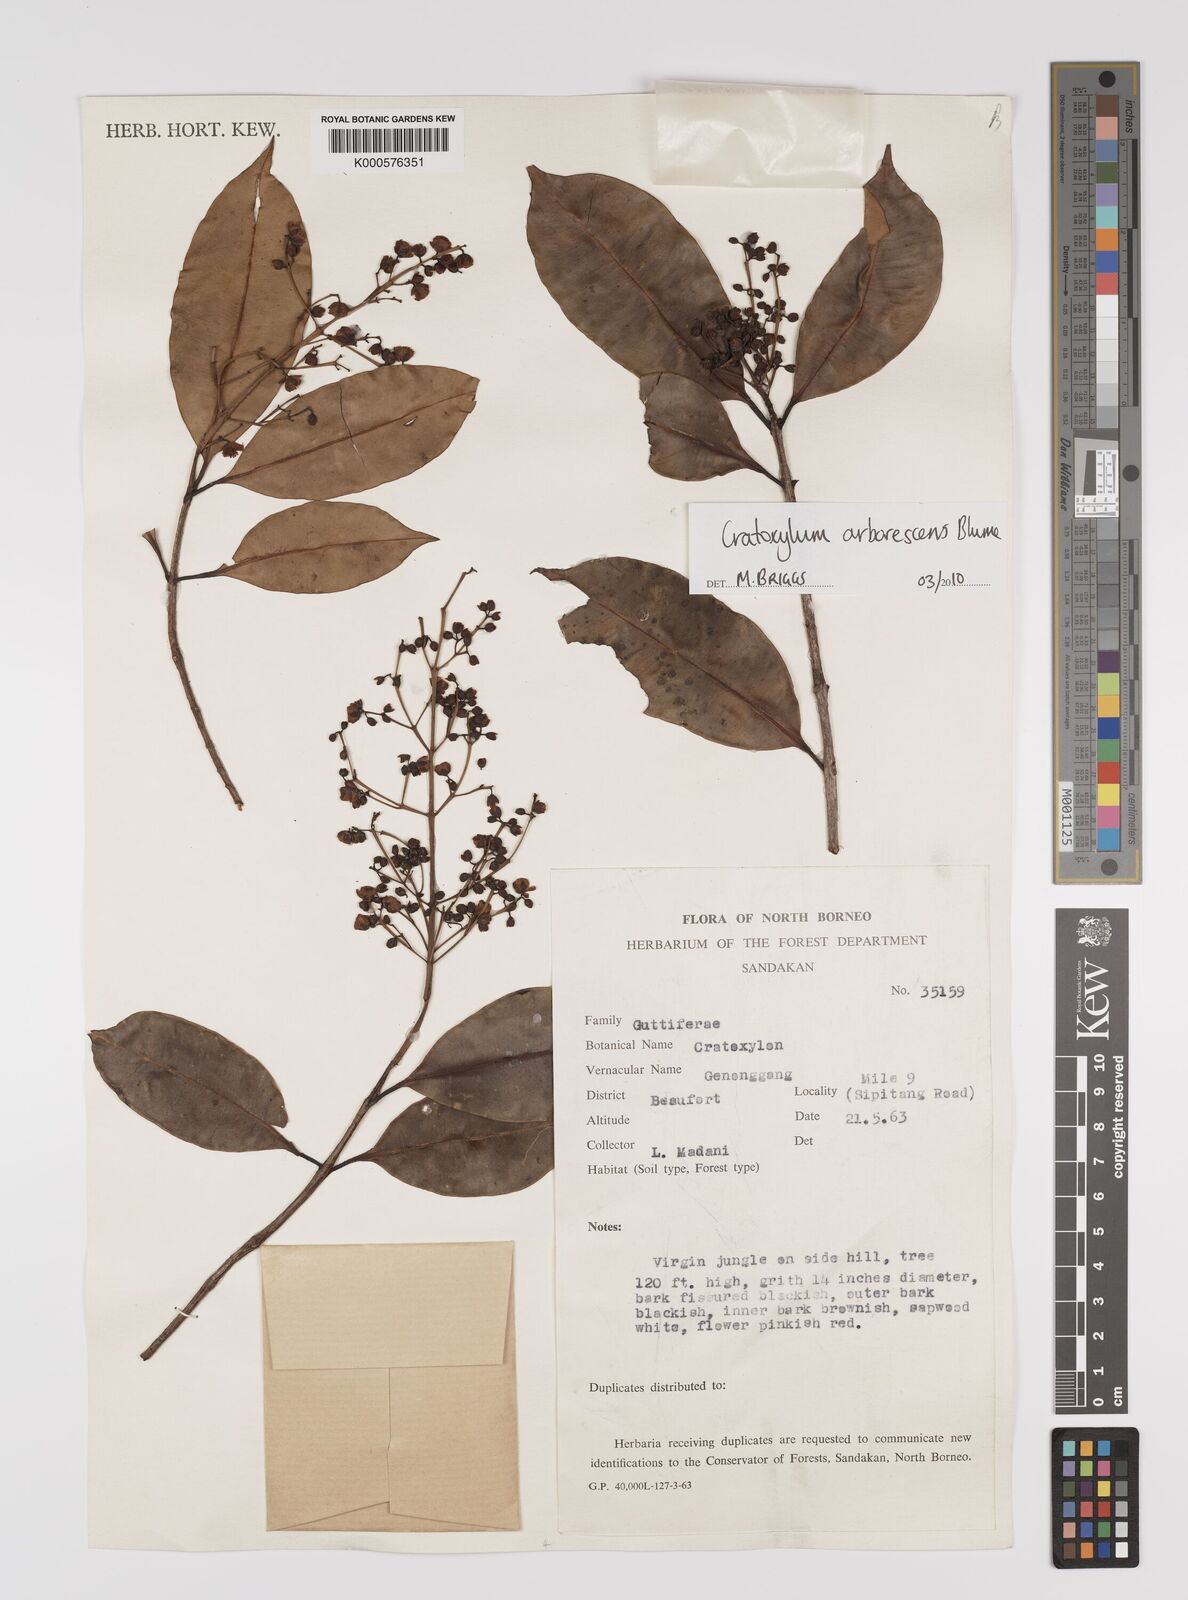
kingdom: Plantae
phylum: Tracheophyta
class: Magnoliopsida
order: Malpighiales
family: Hypericaceae
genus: Cratoxylum
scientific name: Cratoxylum arborescens
